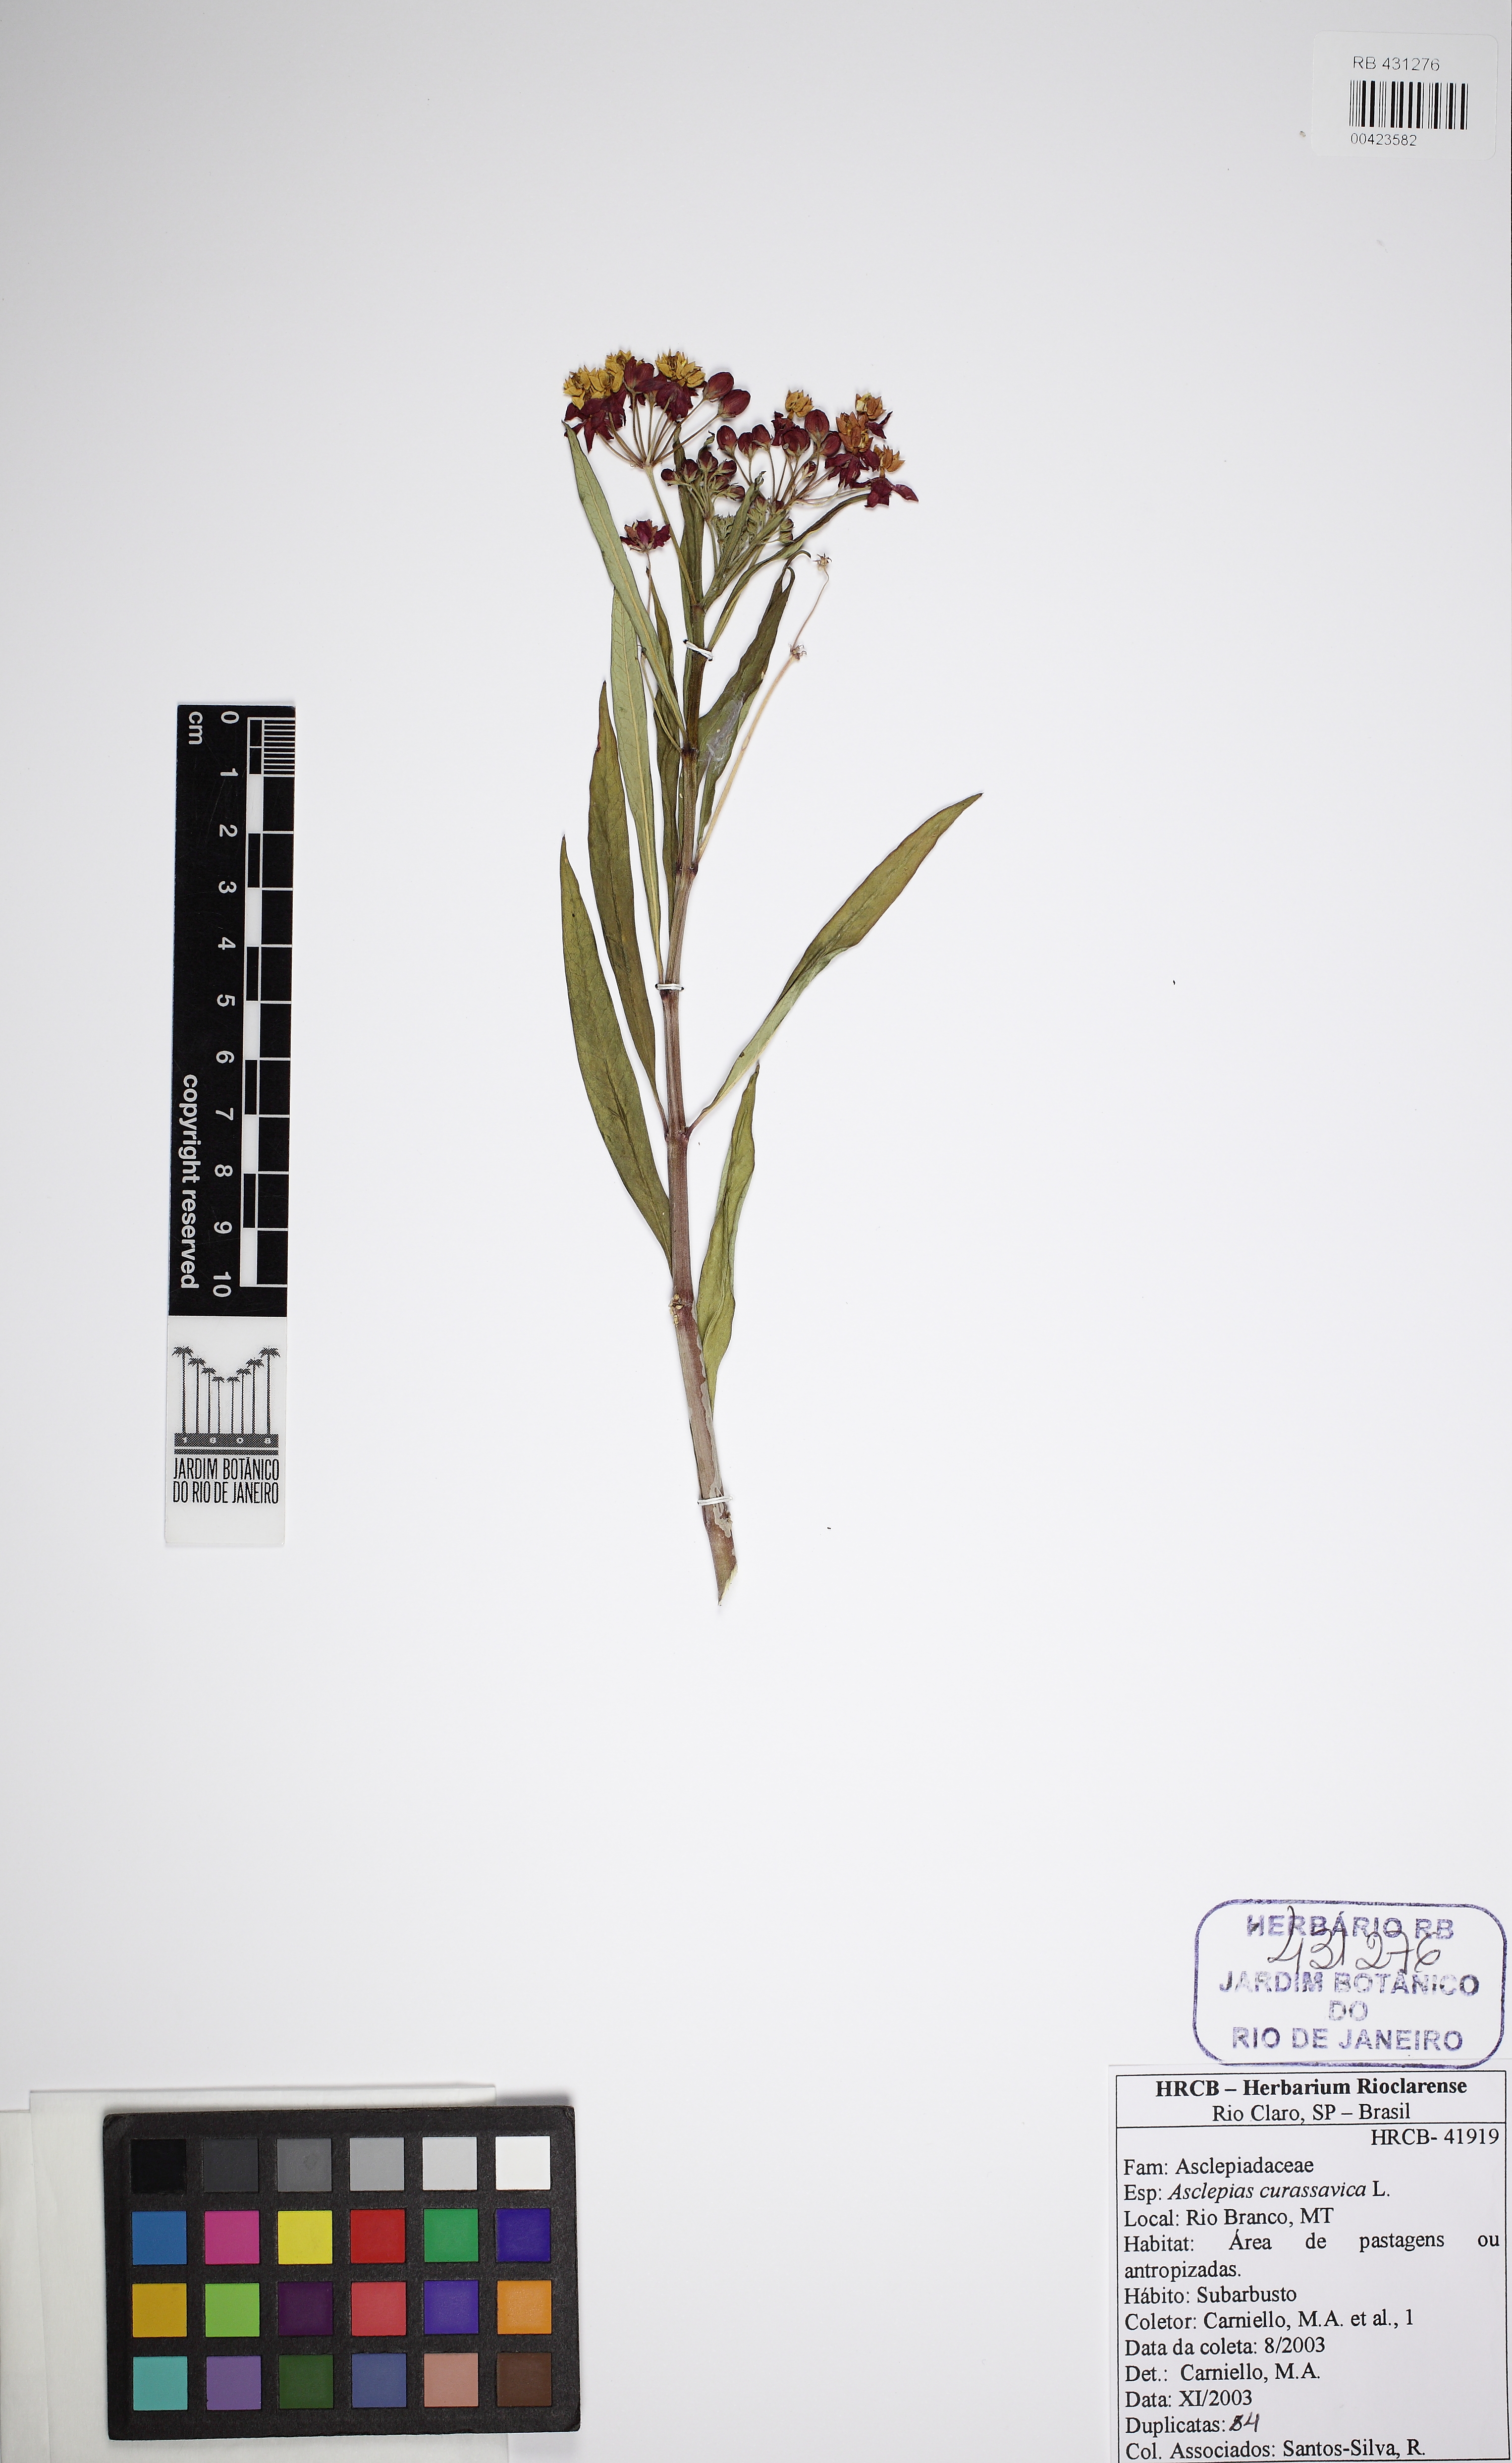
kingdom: Plantae
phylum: Tracheophyta
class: Magnoliopsida
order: Gentianales
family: Apocynaceae
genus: Asclepias
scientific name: Asclepias curassavica
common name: Bloodflower
